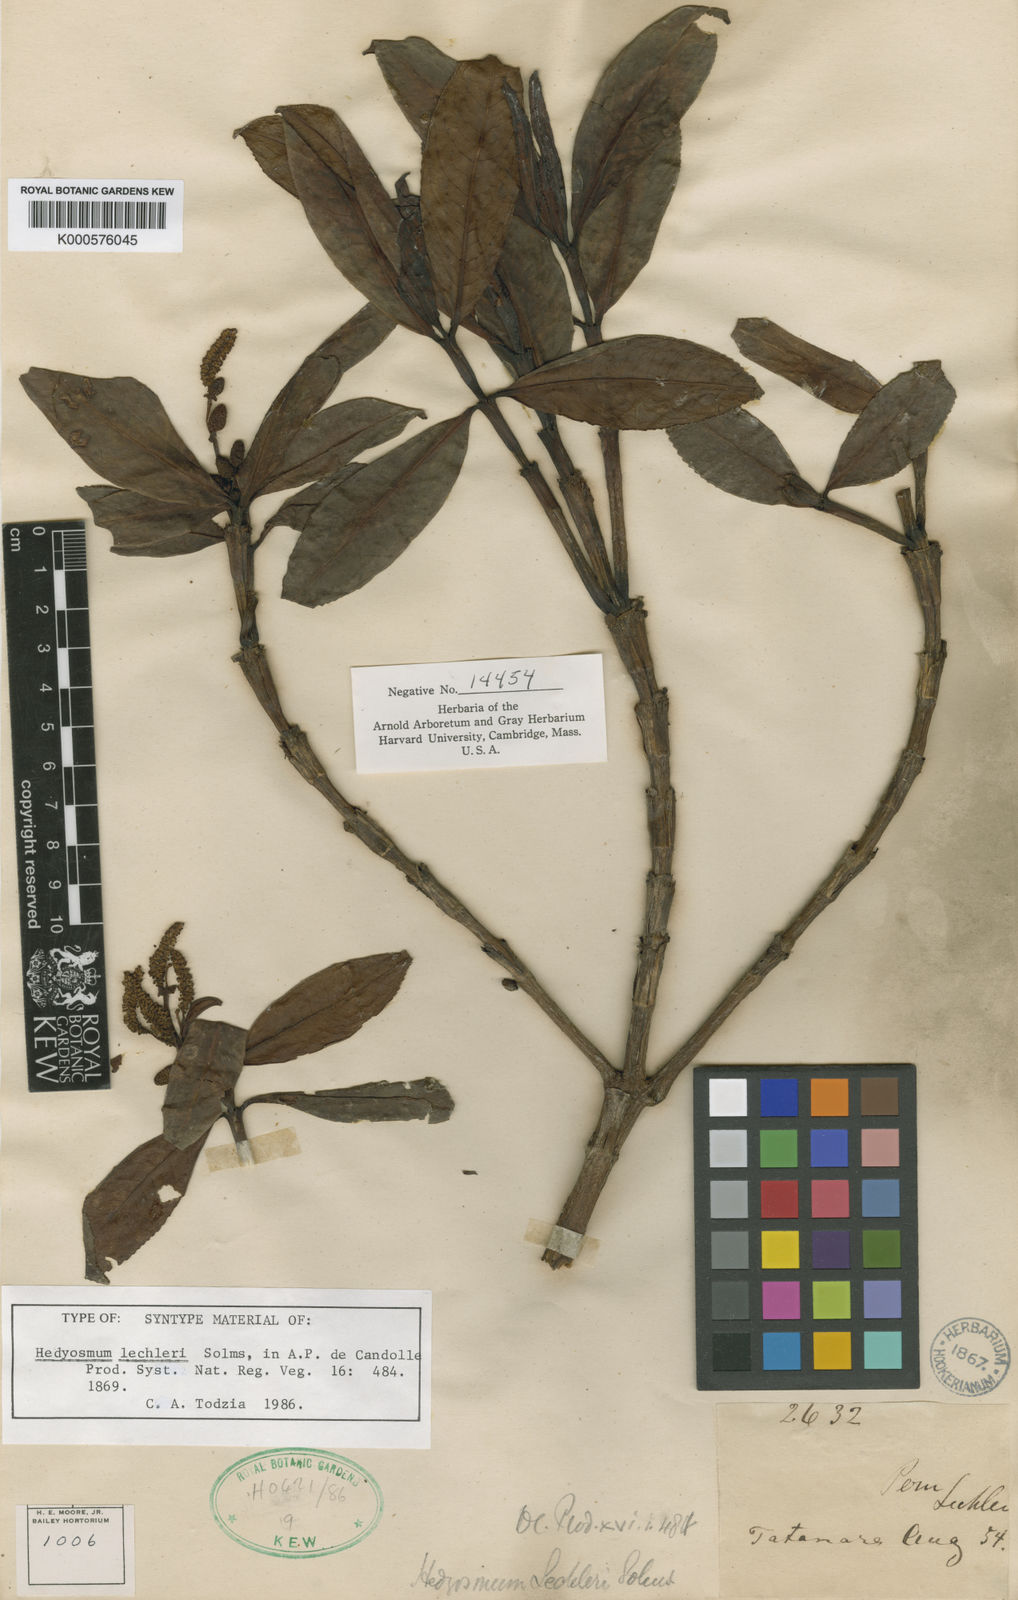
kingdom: Plantae
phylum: Tracheophyta
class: Magnoliopsida
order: Chloranthales
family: Chloranthaceae
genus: Hedyosmum
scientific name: Hedyosmum lechleri
